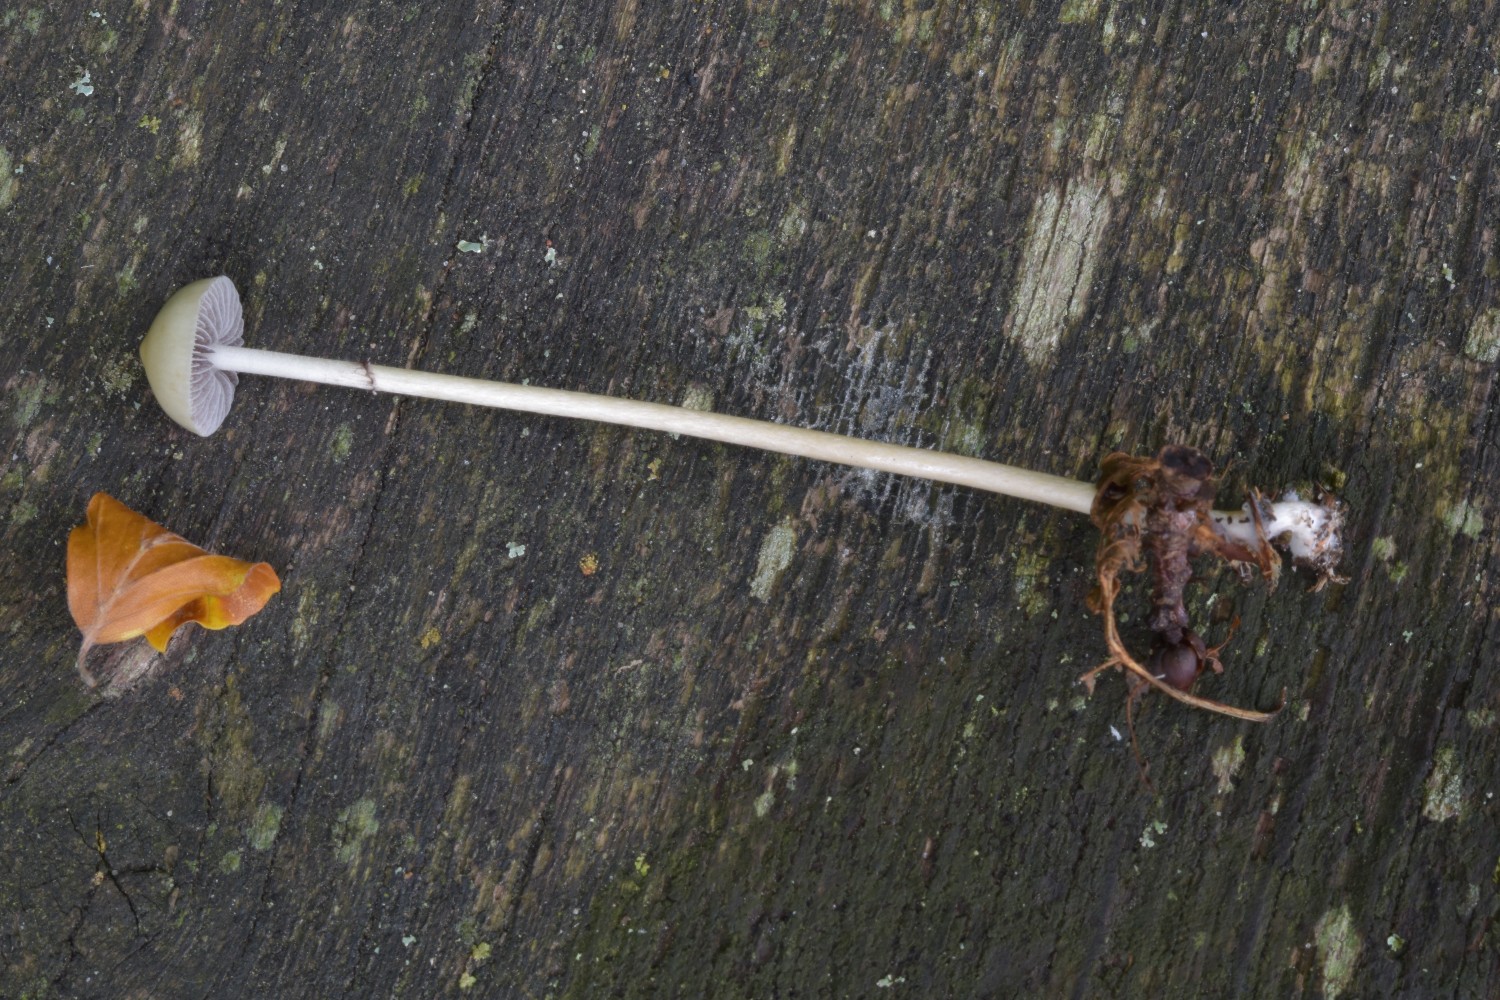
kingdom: Fungi
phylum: Basidiomycota
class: Agaricomycetes
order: Agaricales
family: Strophariaceae
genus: Protostropharia
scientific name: Protostropharia
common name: bredblad
